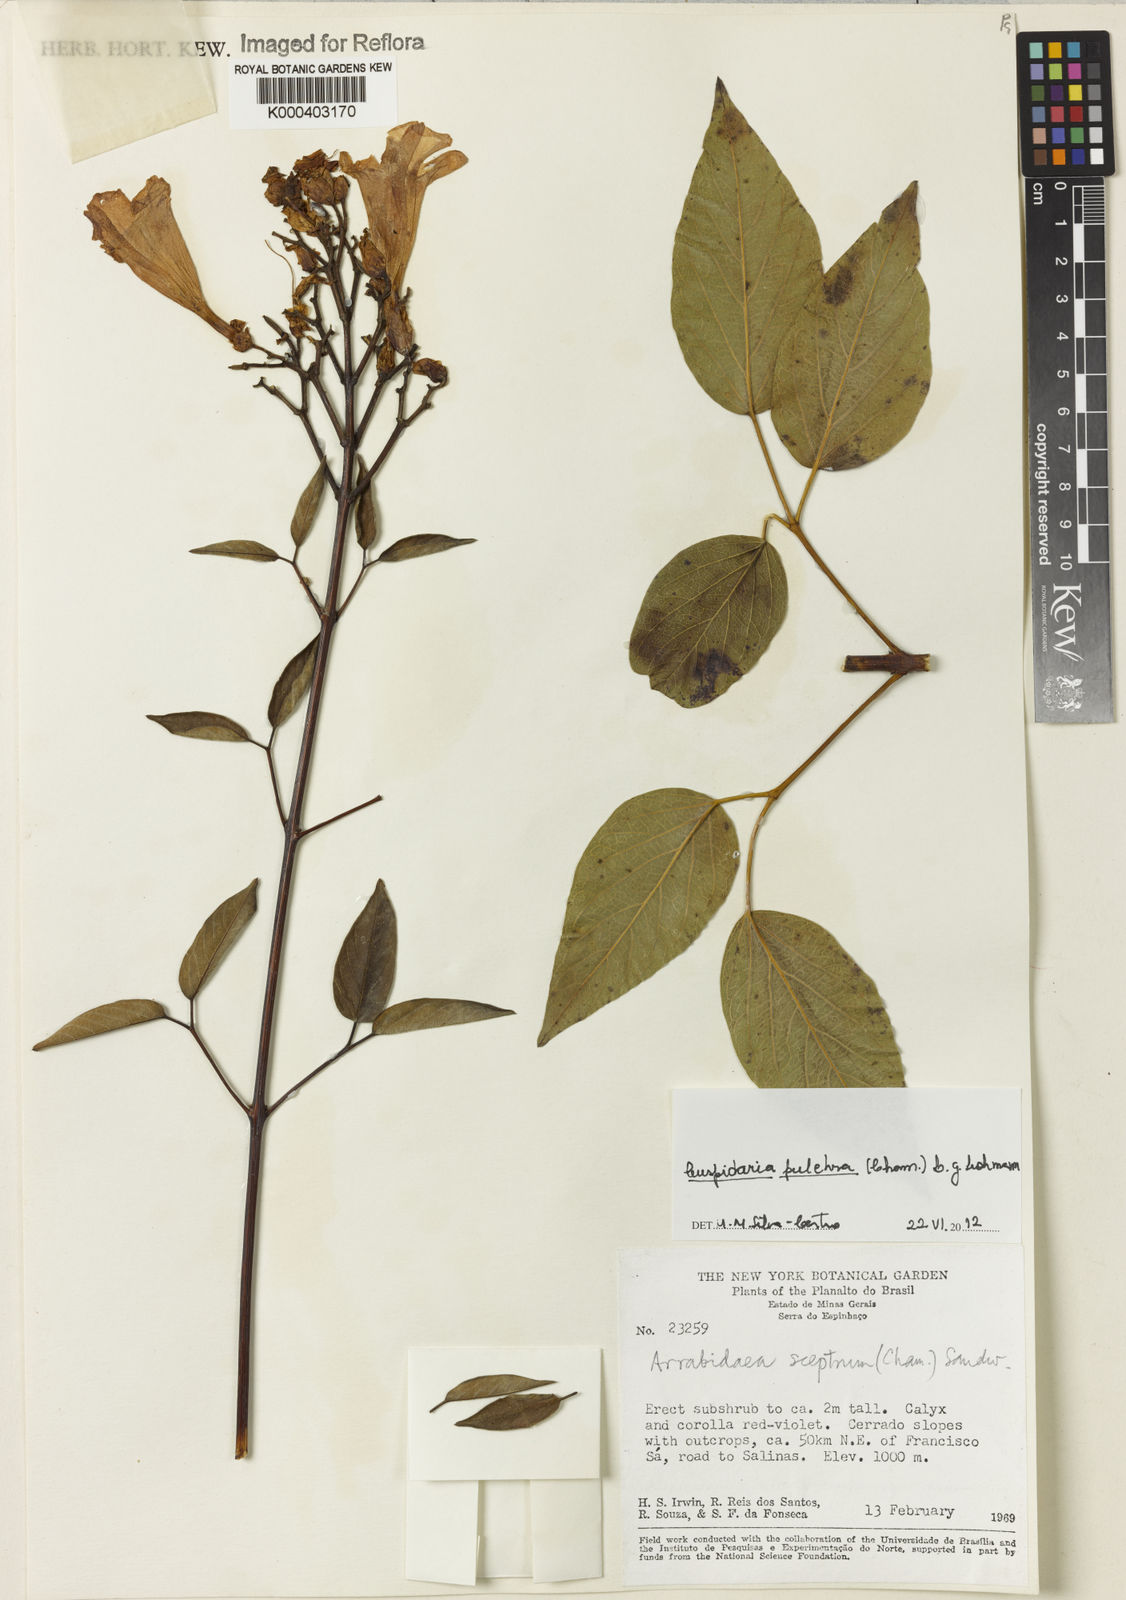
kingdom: Plantae
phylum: Tracheophyta
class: Magnoliopsida
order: Lamiales
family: Bignoniaceae
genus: Cuspidaria
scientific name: Cuspidaria sceptrum
